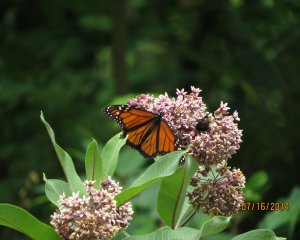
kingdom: Animalia
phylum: Arthropoda
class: Insecta
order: Lepidoptera
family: Nymphalidae
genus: Danaus
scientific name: Danaus plexippus
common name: Monarch
